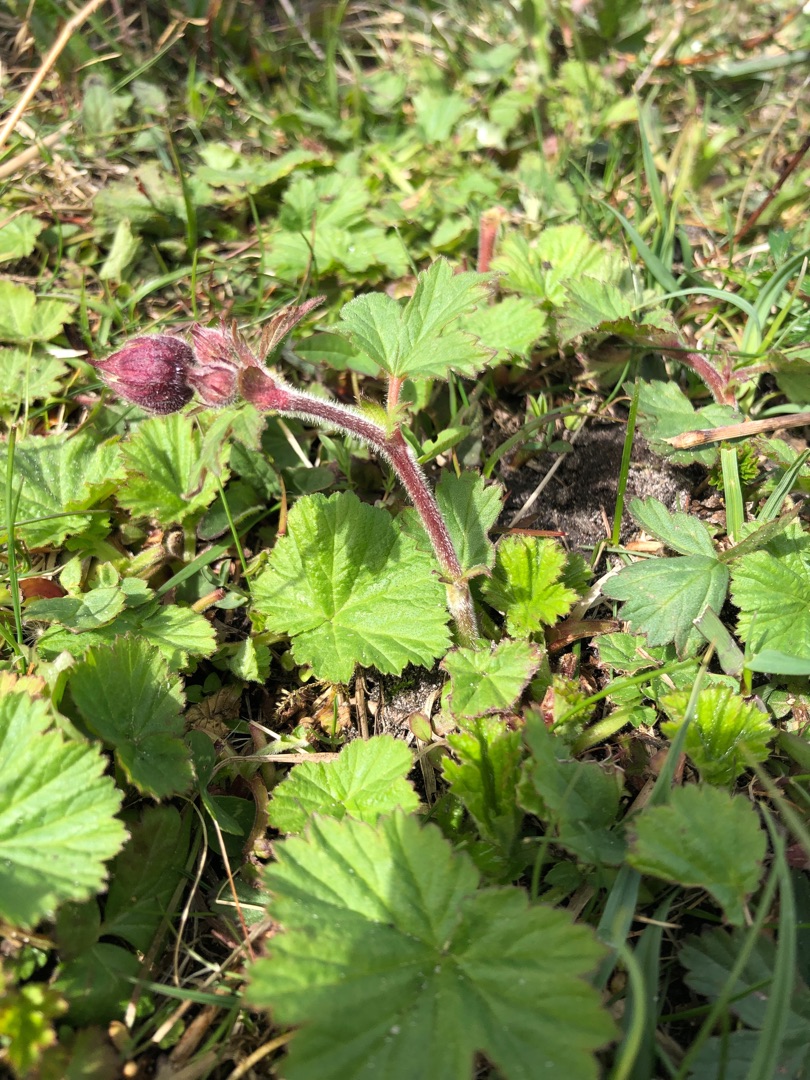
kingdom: Plantae
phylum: Tracheophyta
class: Magnoliopsida
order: Rosales
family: Rosaceae
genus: Geum
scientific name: Geum rivale
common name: Eng-nellikerod
